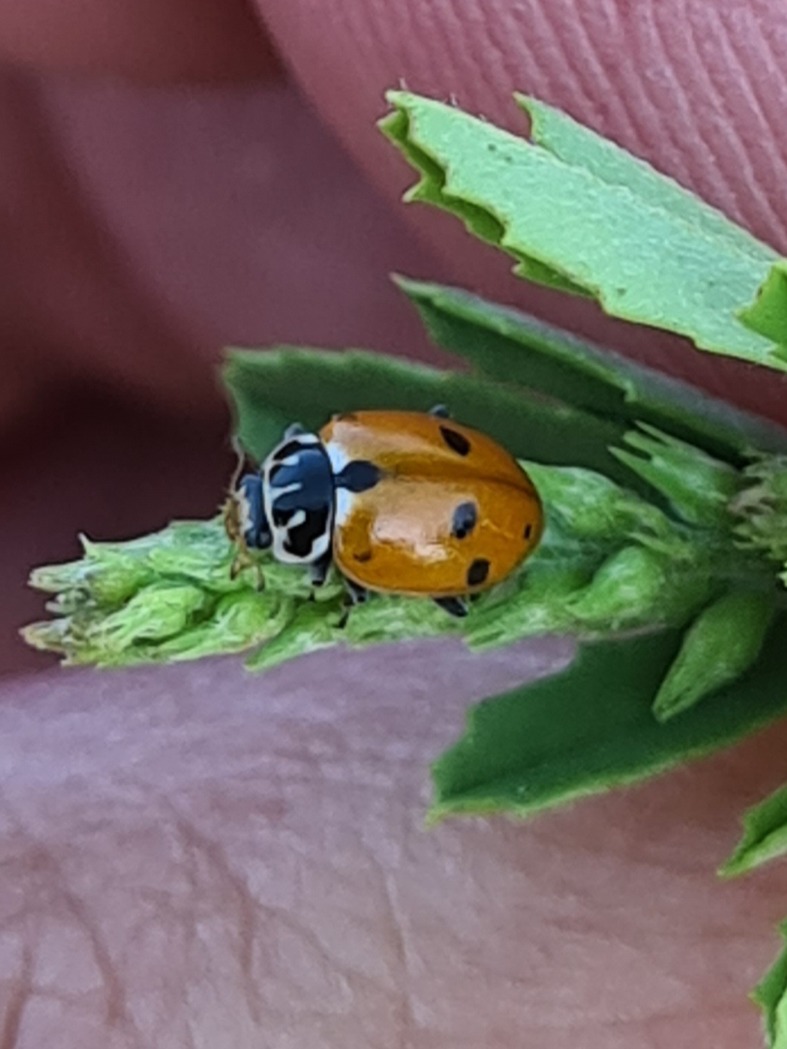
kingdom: Animalia
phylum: Arthropoda
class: Insecta
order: Coleoptera
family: Coccinellidae
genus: Hippodamia
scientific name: Hippodamia variegata
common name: Adonis' mariehøne
